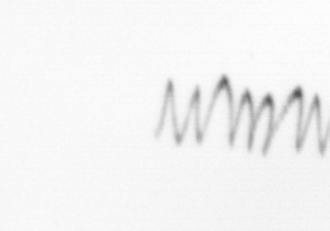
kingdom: Chromista
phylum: Ochrophyta
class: Bacillariophyceae
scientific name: Bacillariophyceae
